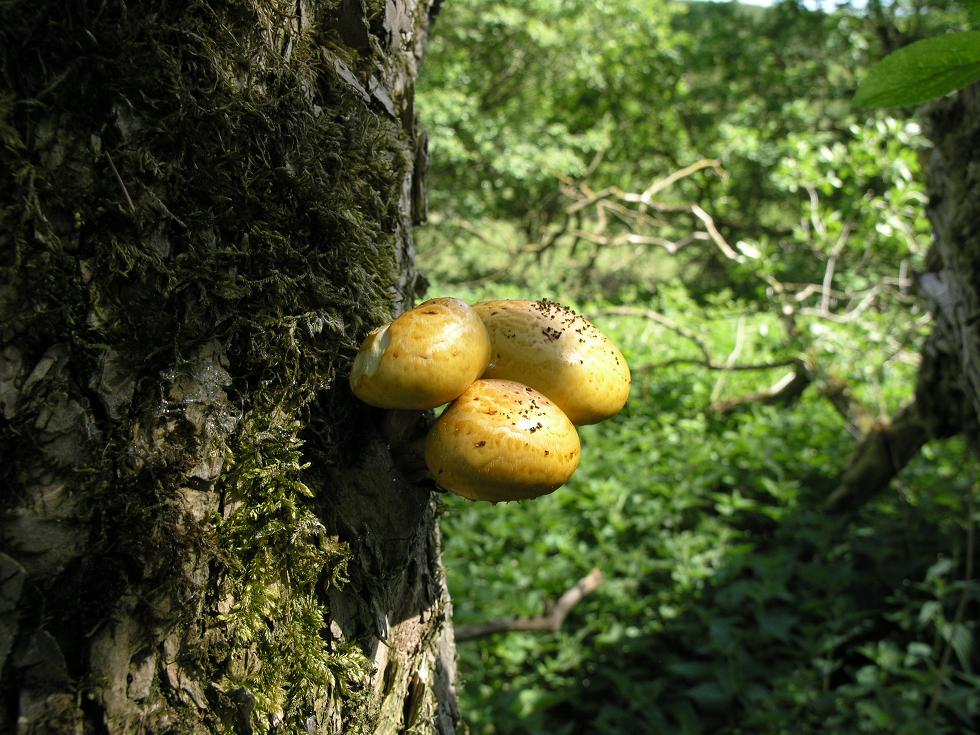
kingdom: Fungi
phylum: Basidiomycota
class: Agaricomycetes
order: Agaricales
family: Strophariaceae
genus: Pholiota
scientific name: Pholiota limonella
